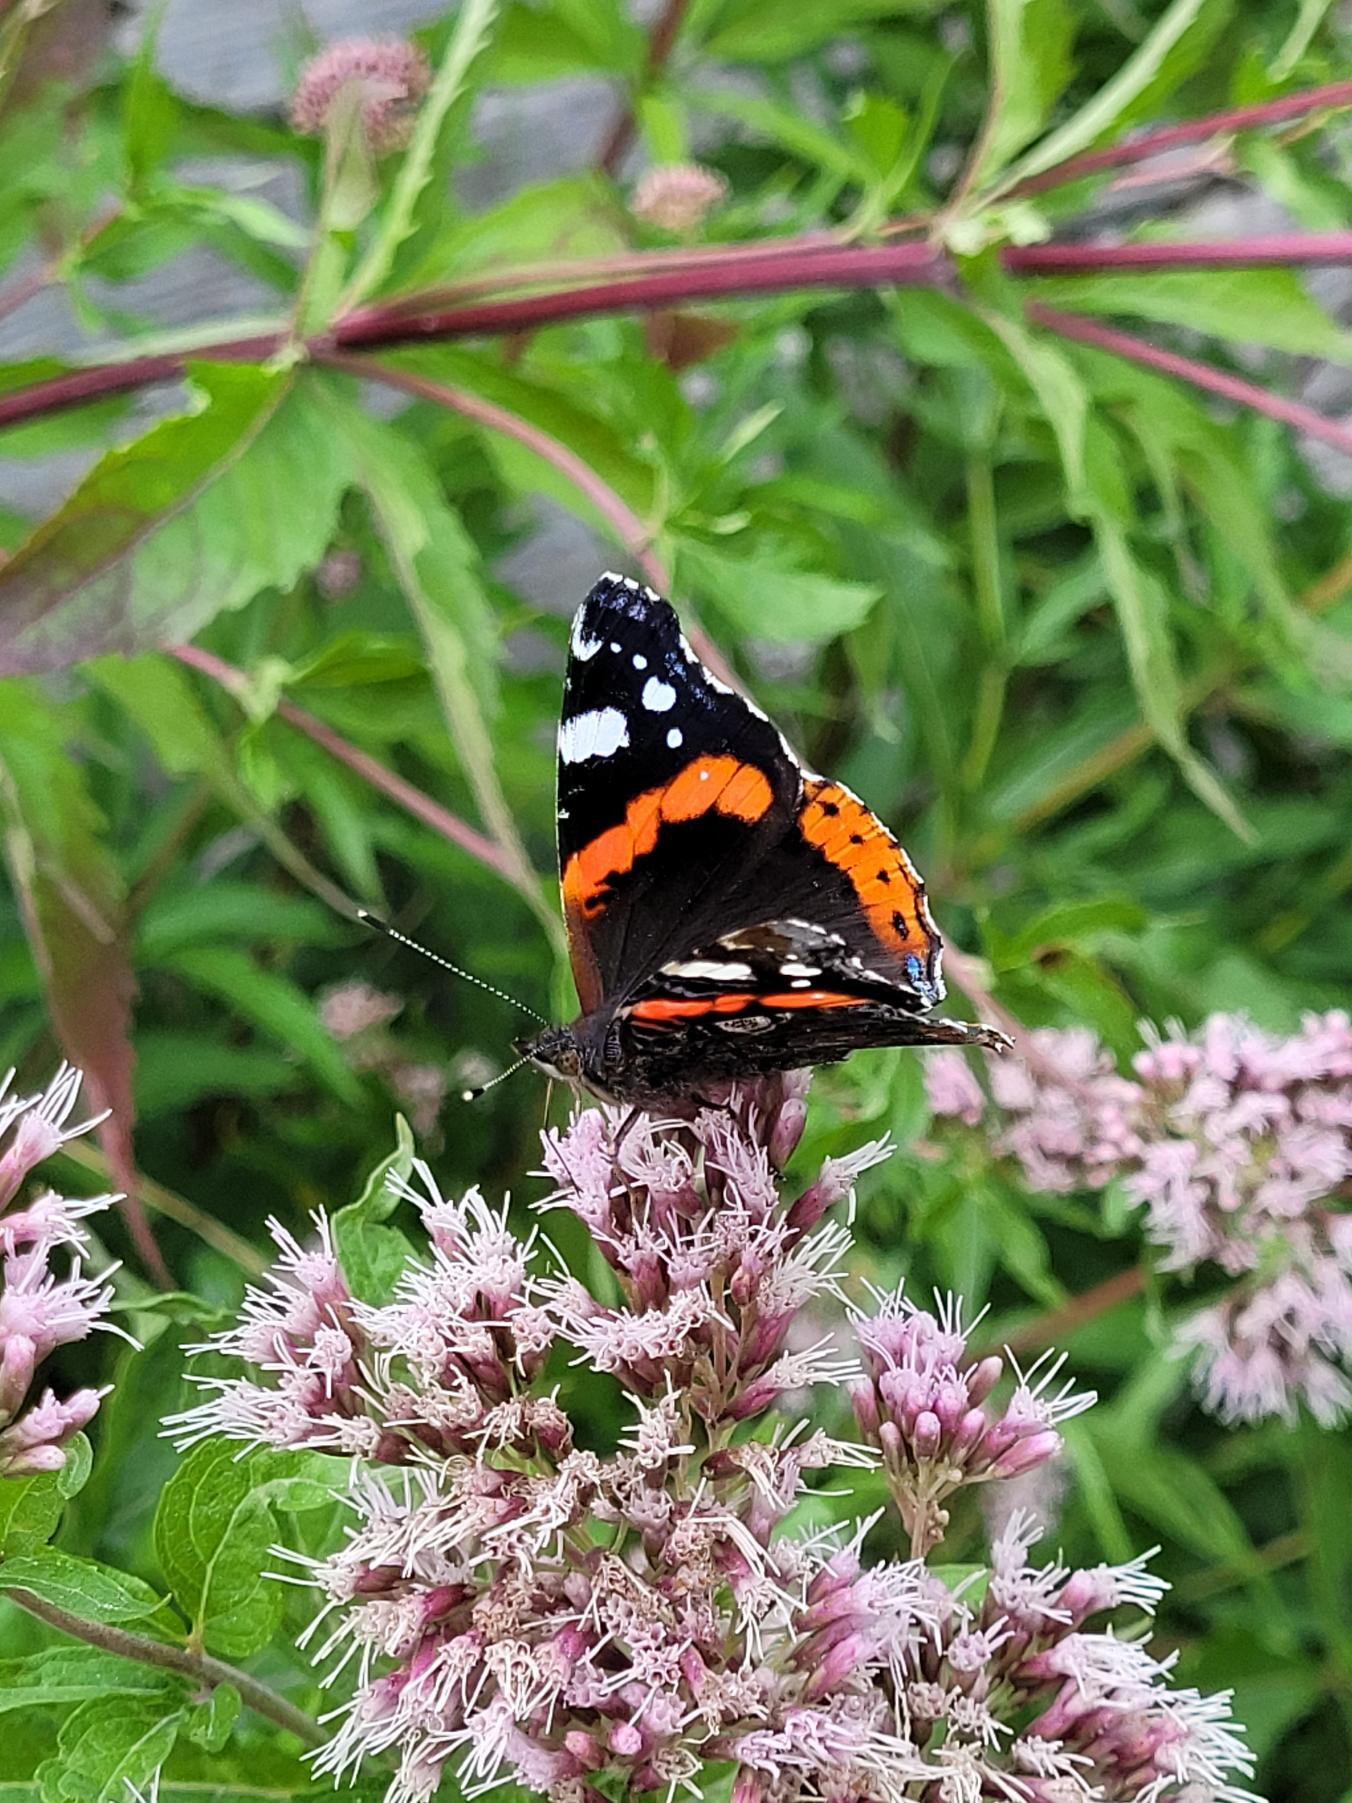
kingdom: Animalia
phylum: Arthropoda
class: Insecta
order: Lepidoptera
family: Nymphalidae
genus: Vanessa
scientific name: Vanessa atalanta
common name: Admiral
